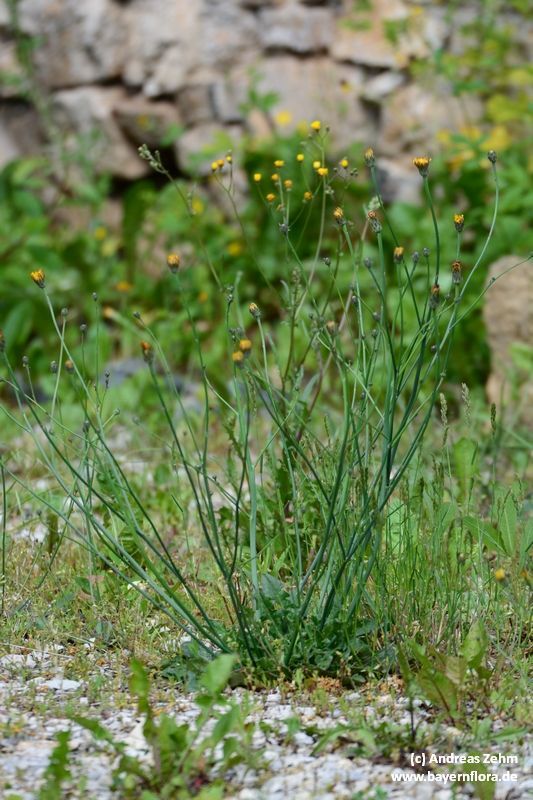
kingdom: Plantae
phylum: Tracheophyta
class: Magnoliopsida
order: Asterales
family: Asteraceae
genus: Hypochaeris
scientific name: Hypochaeris radicata
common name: Flatweed
